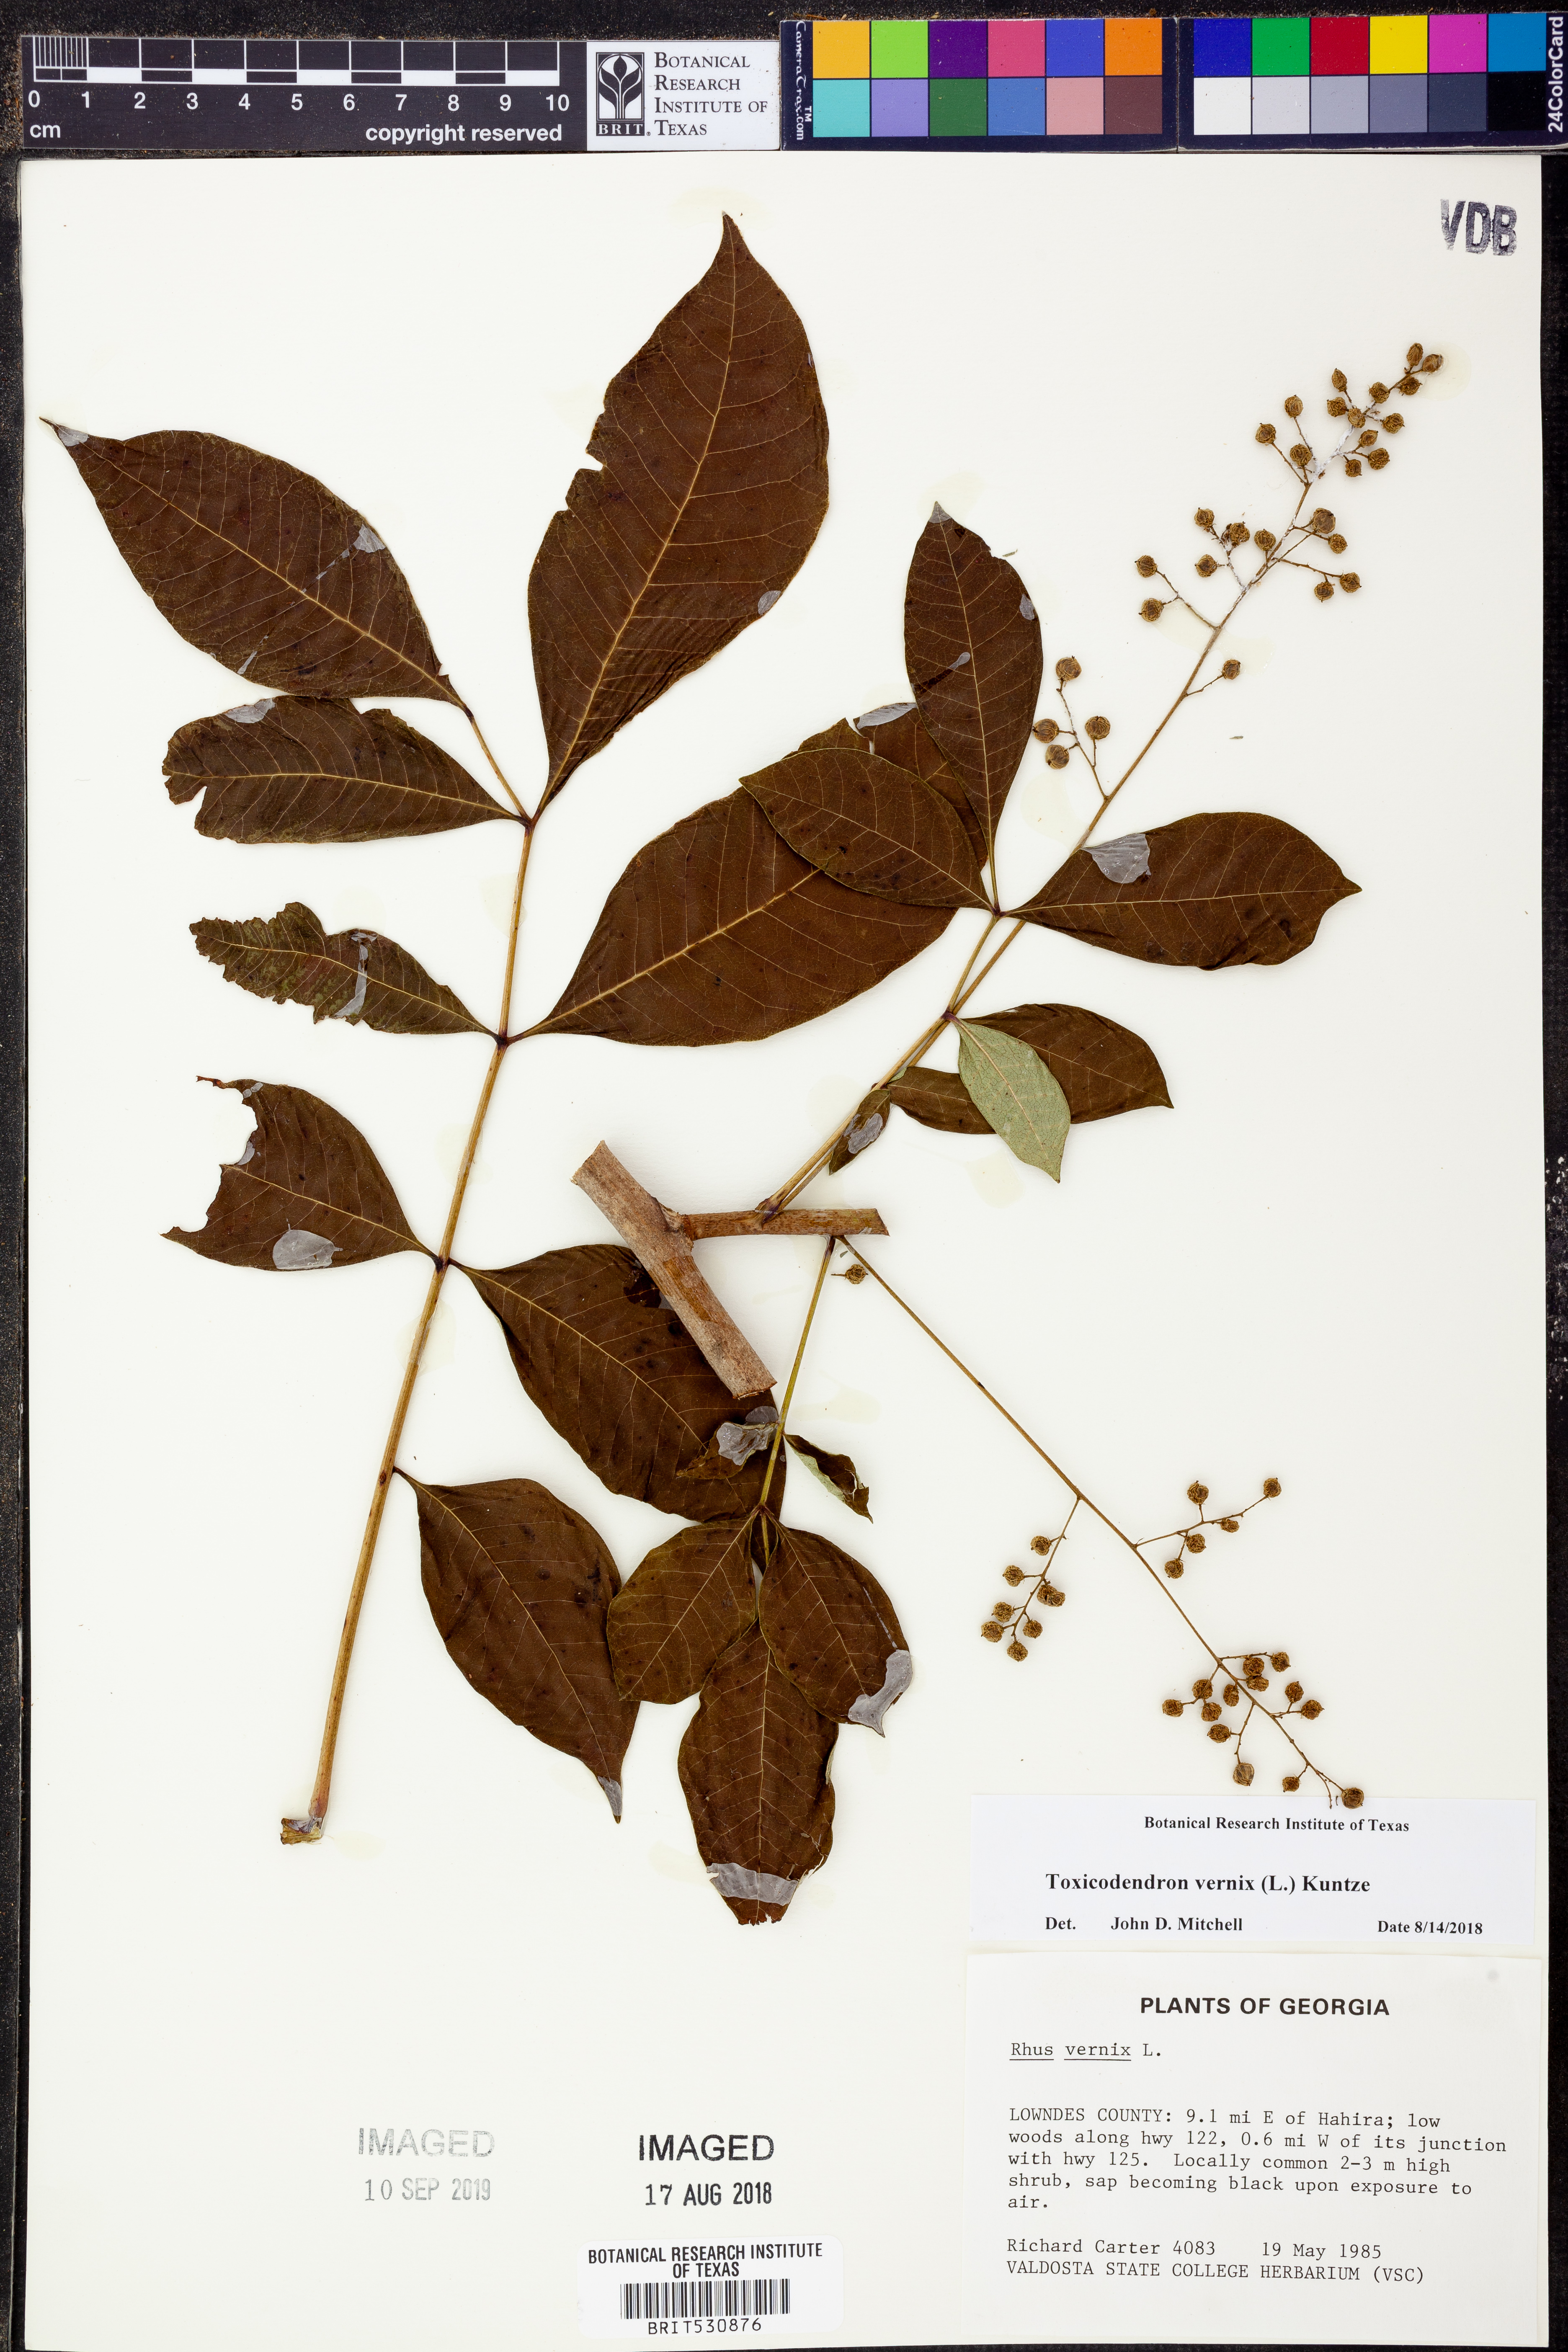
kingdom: Plantae
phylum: Tracheophyta
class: Magnoliopsida
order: Sapindales
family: Anacardiaceae
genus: Toxicodendron
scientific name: Toxicodendron vernix
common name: Poison sumac
